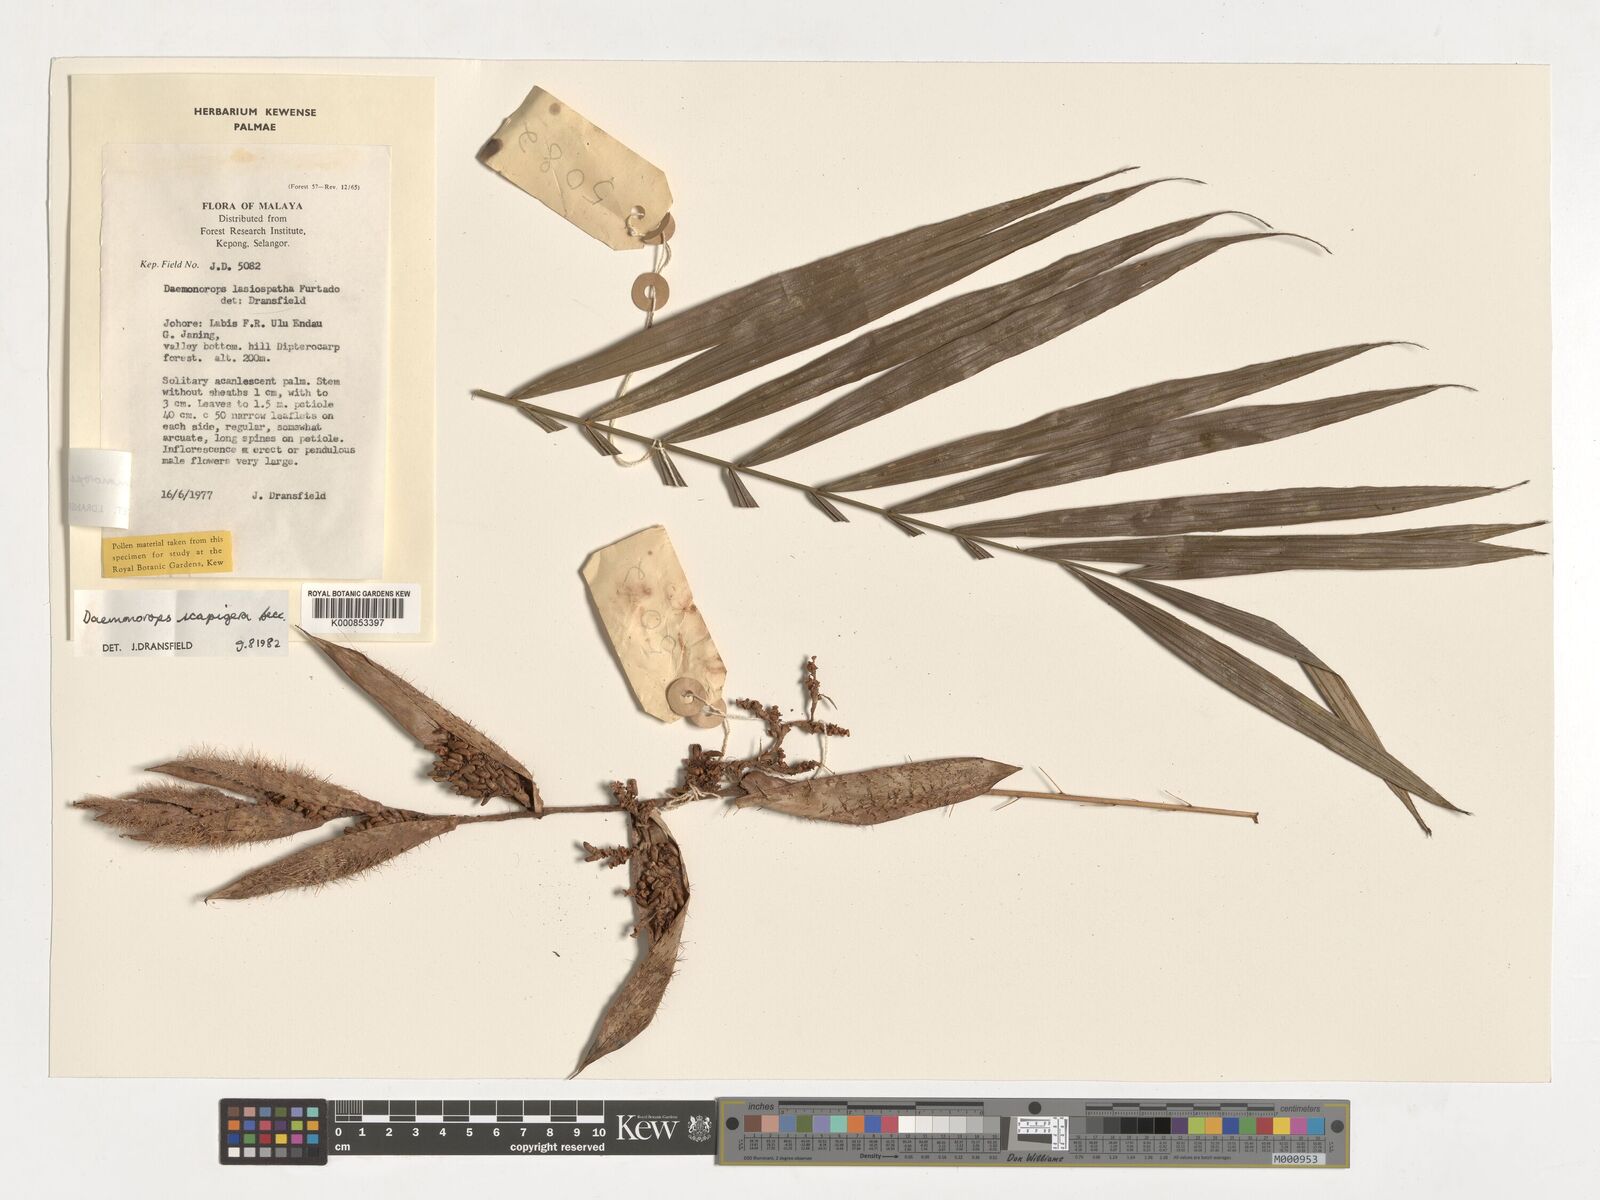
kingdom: Plantae
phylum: Tracheophyta
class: Liliopsida
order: Arecales
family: Arecaceae
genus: Calamus
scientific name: Calamus scapigerus
